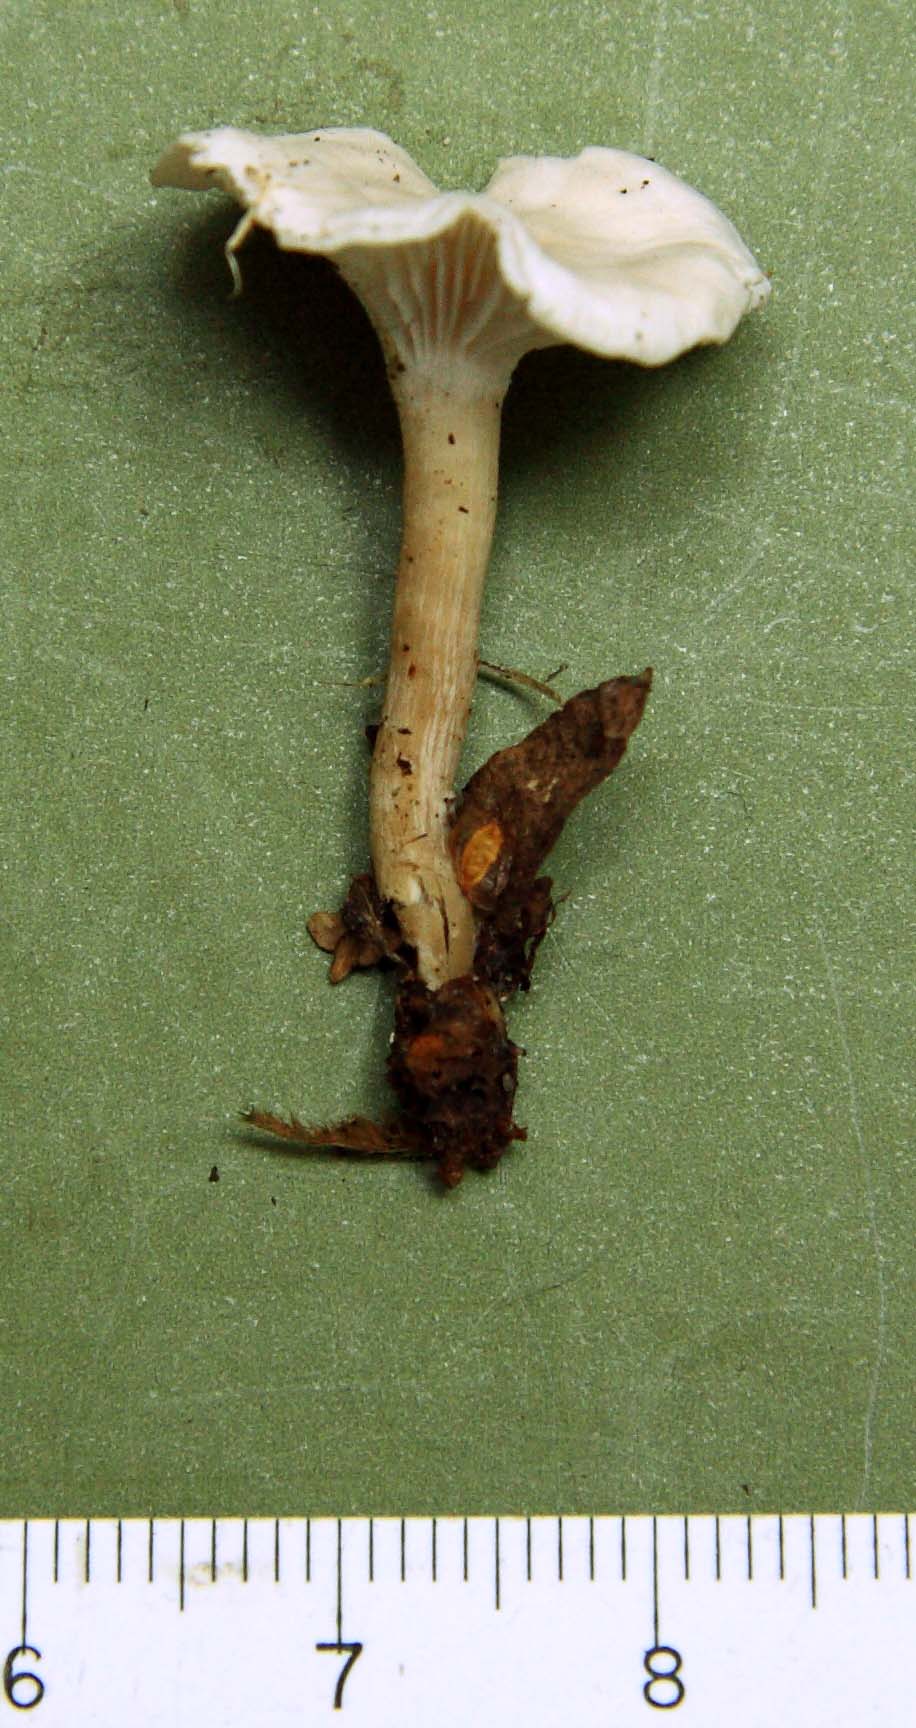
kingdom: Fungi
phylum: Basidiomycota
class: Agaricomycetes
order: Agaricales
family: Tricholomataceae
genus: Leucocybe
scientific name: Leucocybe candicans
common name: kridt-tragthat
